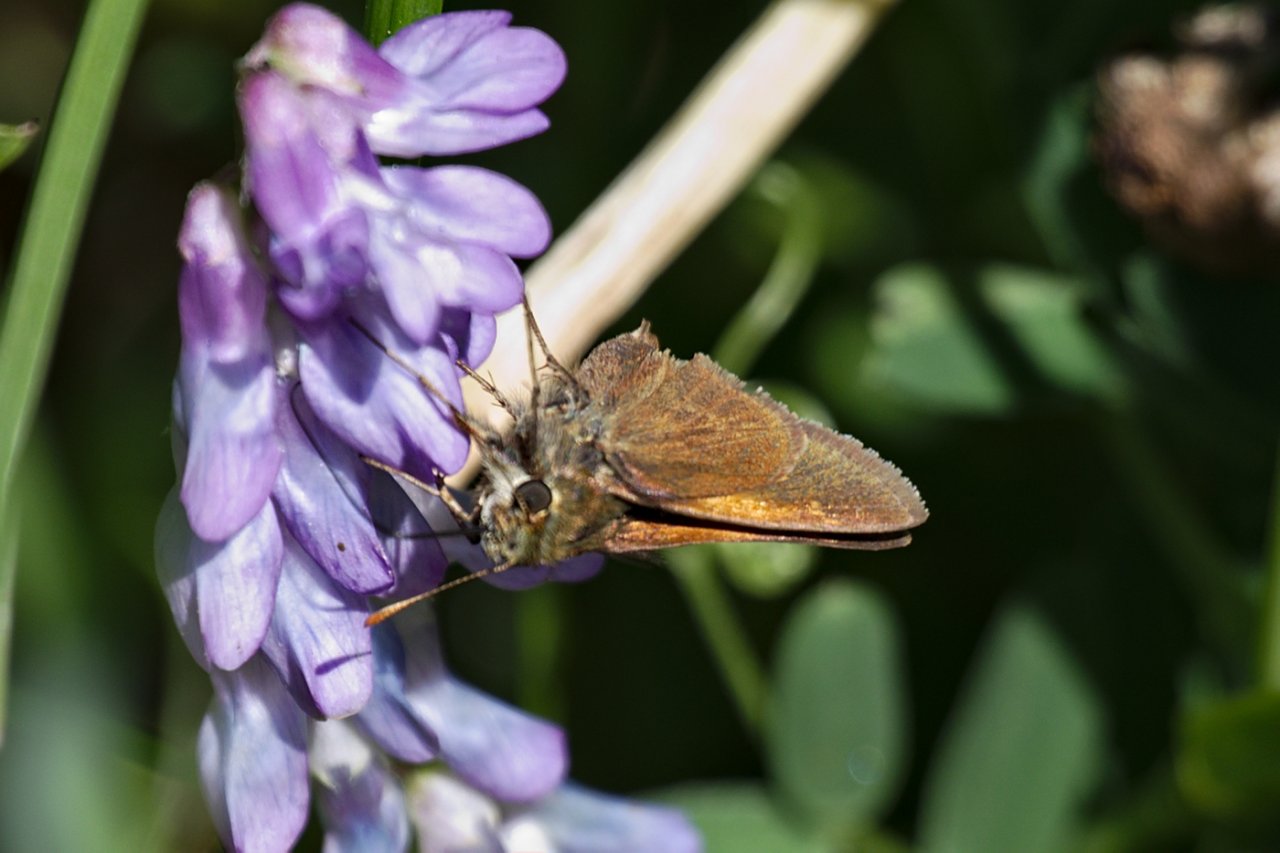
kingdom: Animalia
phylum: Arthropoda
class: Insecta
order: Lepidoptera
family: Hesperiidae
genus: Polites
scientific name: Polites themistocles
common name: Tawny-edged Skipper
